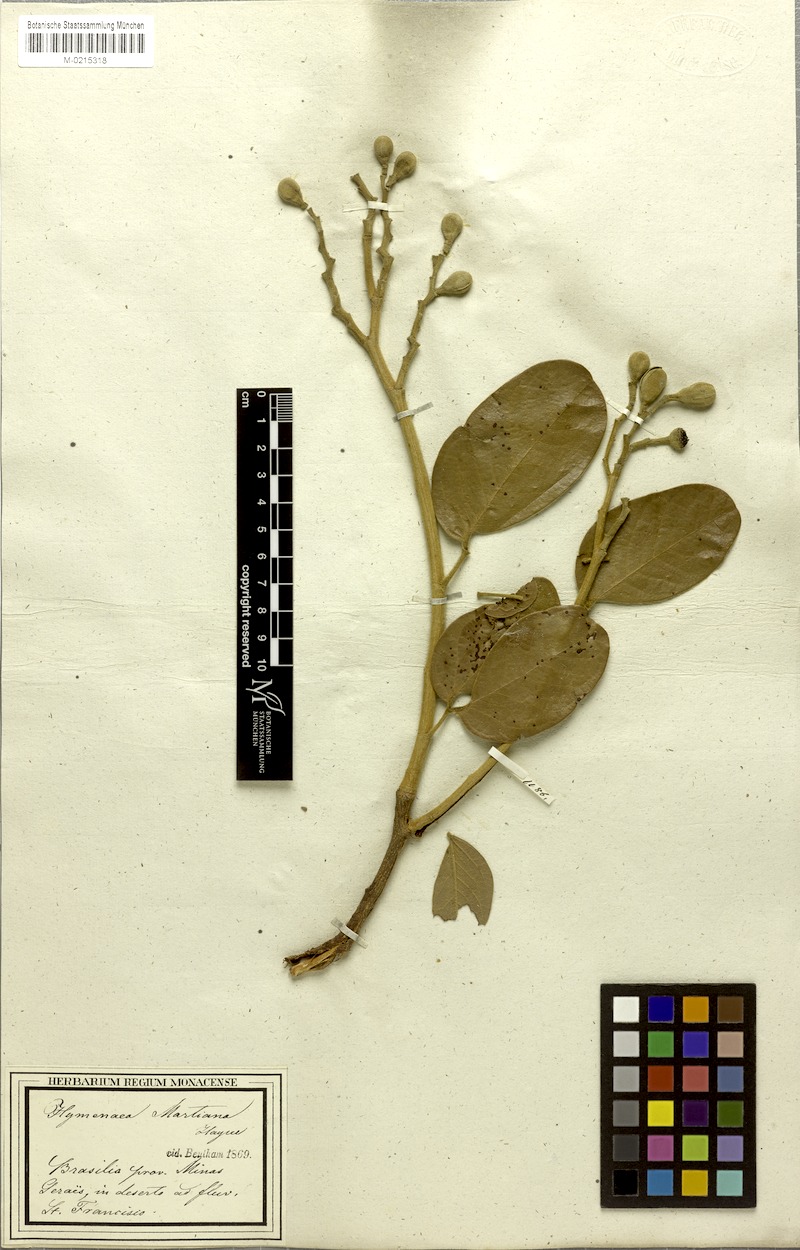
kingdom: Plantae
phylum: Tracheophyta
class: Magnoliopsida
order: Fabales
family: Fabaceae
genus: Hymenaea
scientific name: Hymenaea martiana
